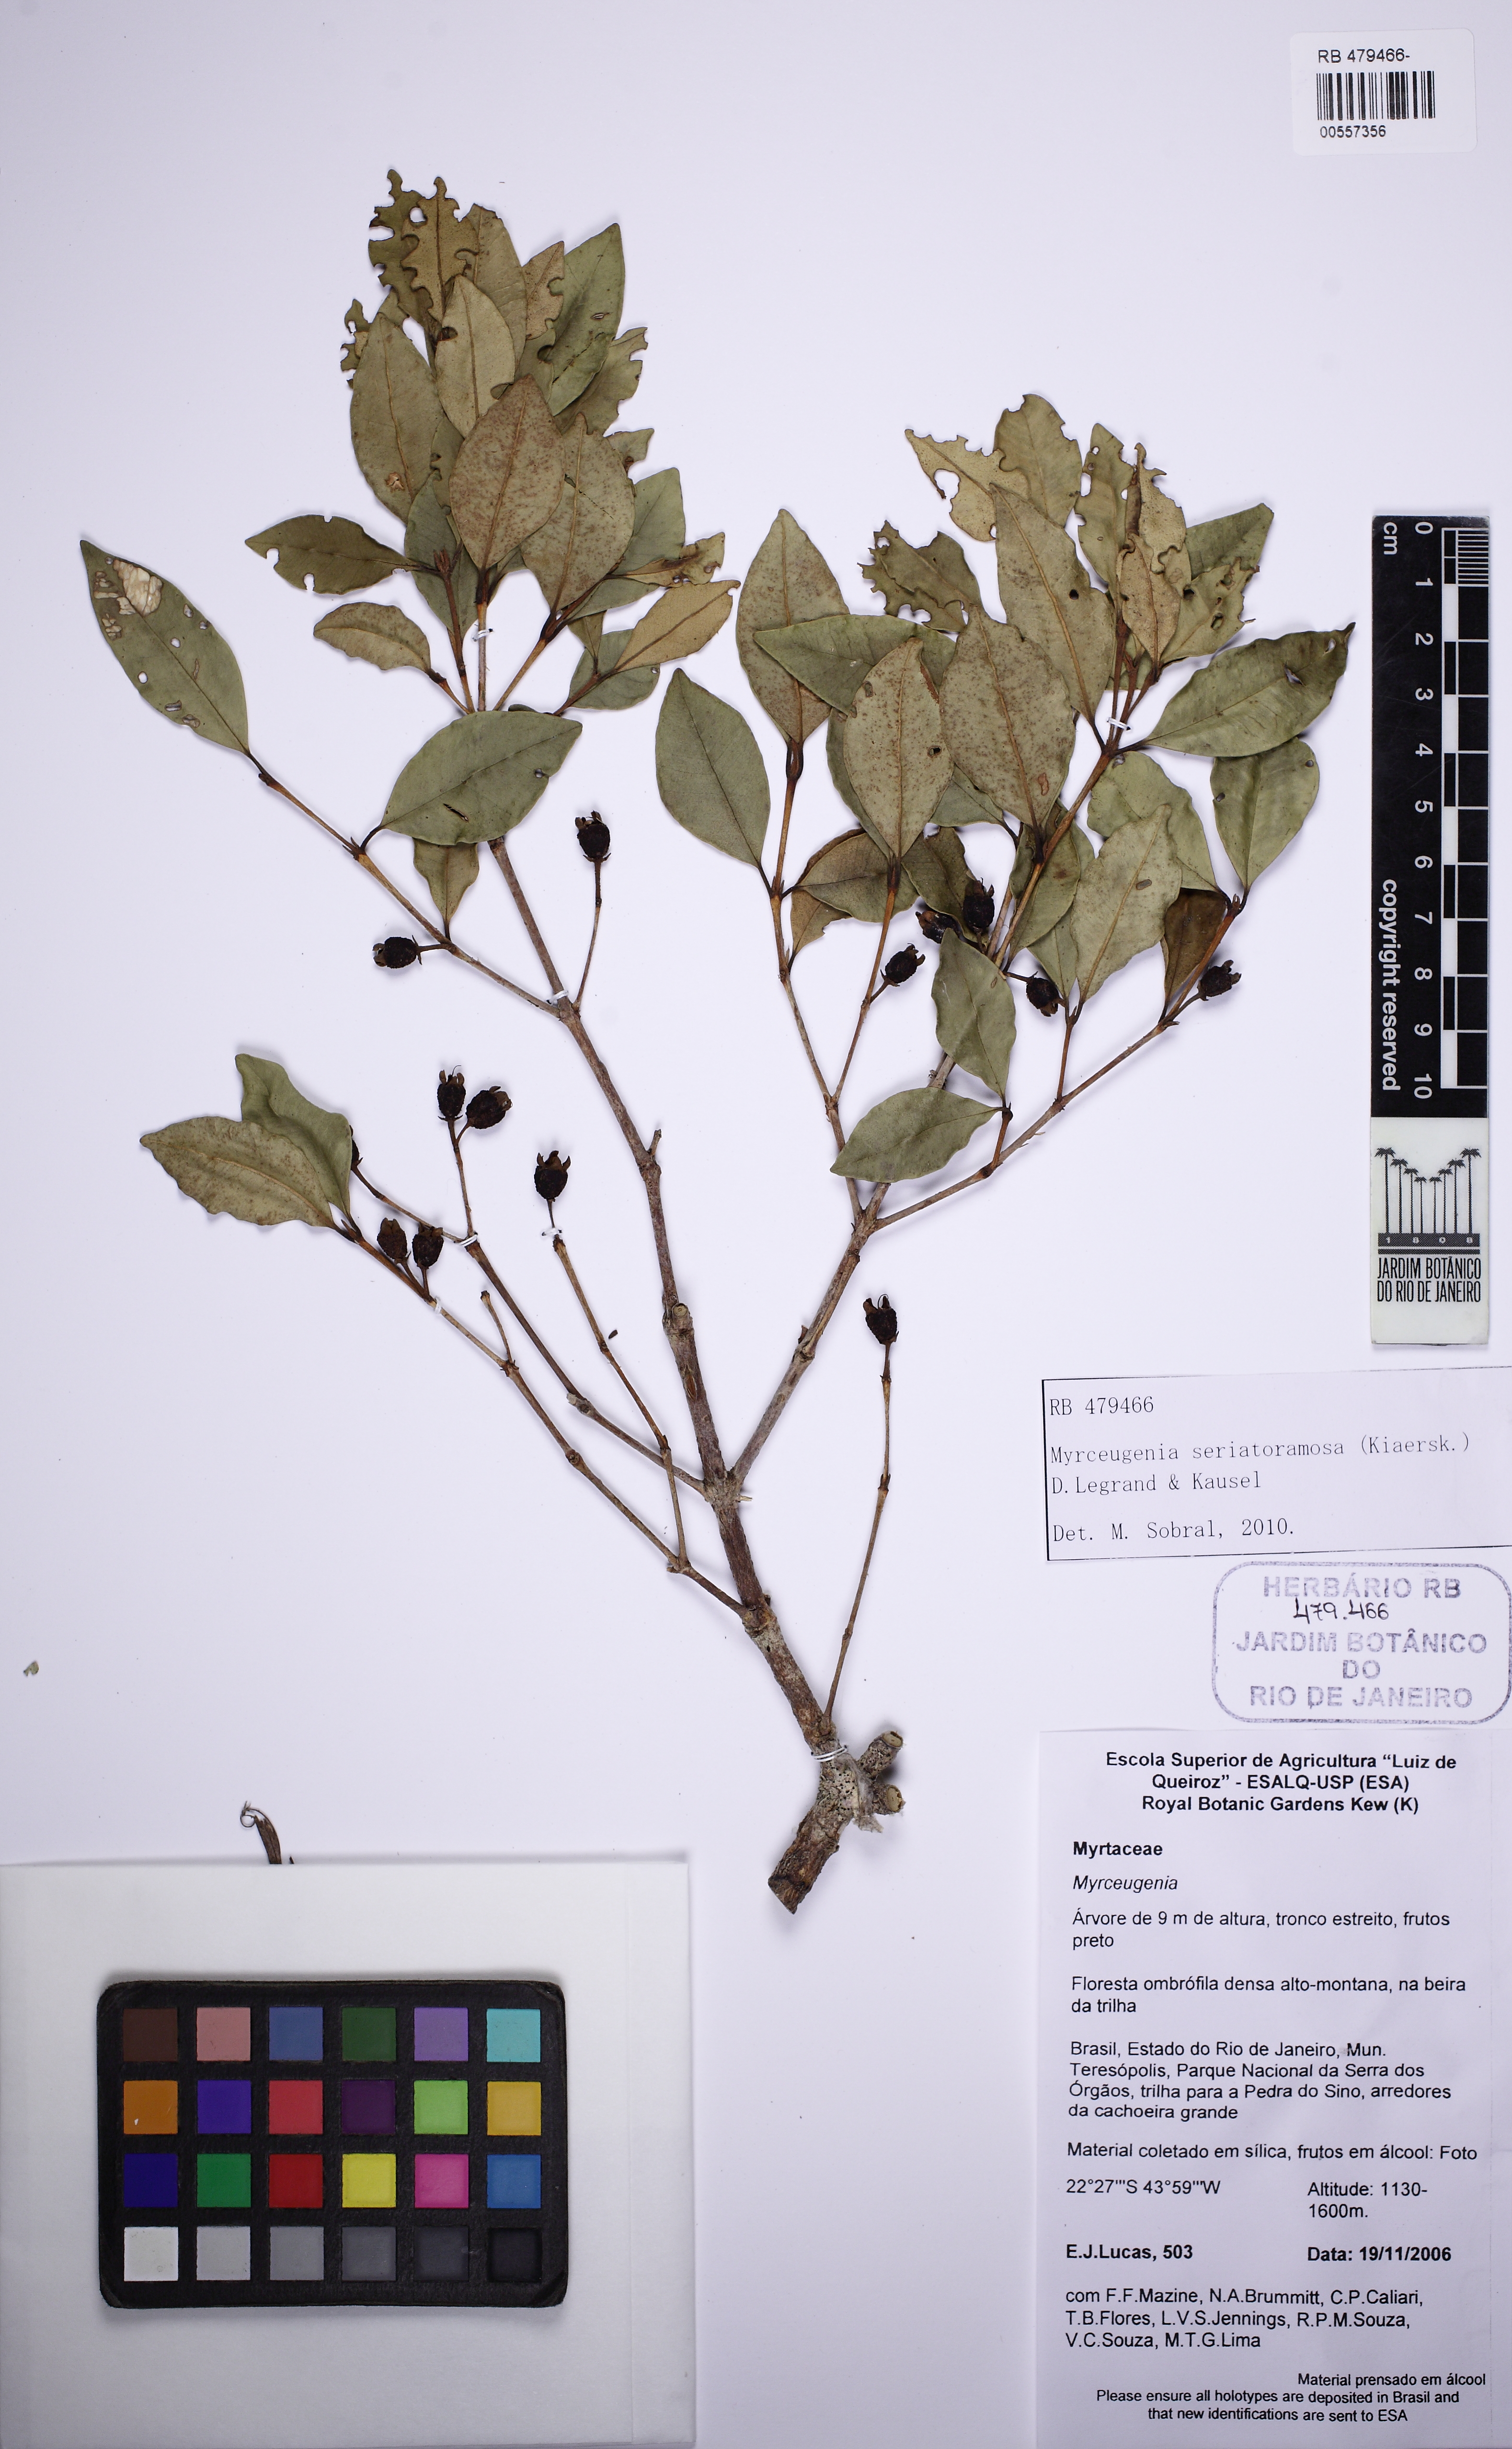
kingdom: Plantae
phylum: Tracheophyta
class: Magnoliopsida
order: Myrtales
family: Myrtaceae
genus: Myrceugenia
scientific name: Myrceugenia seriato-ramosa
